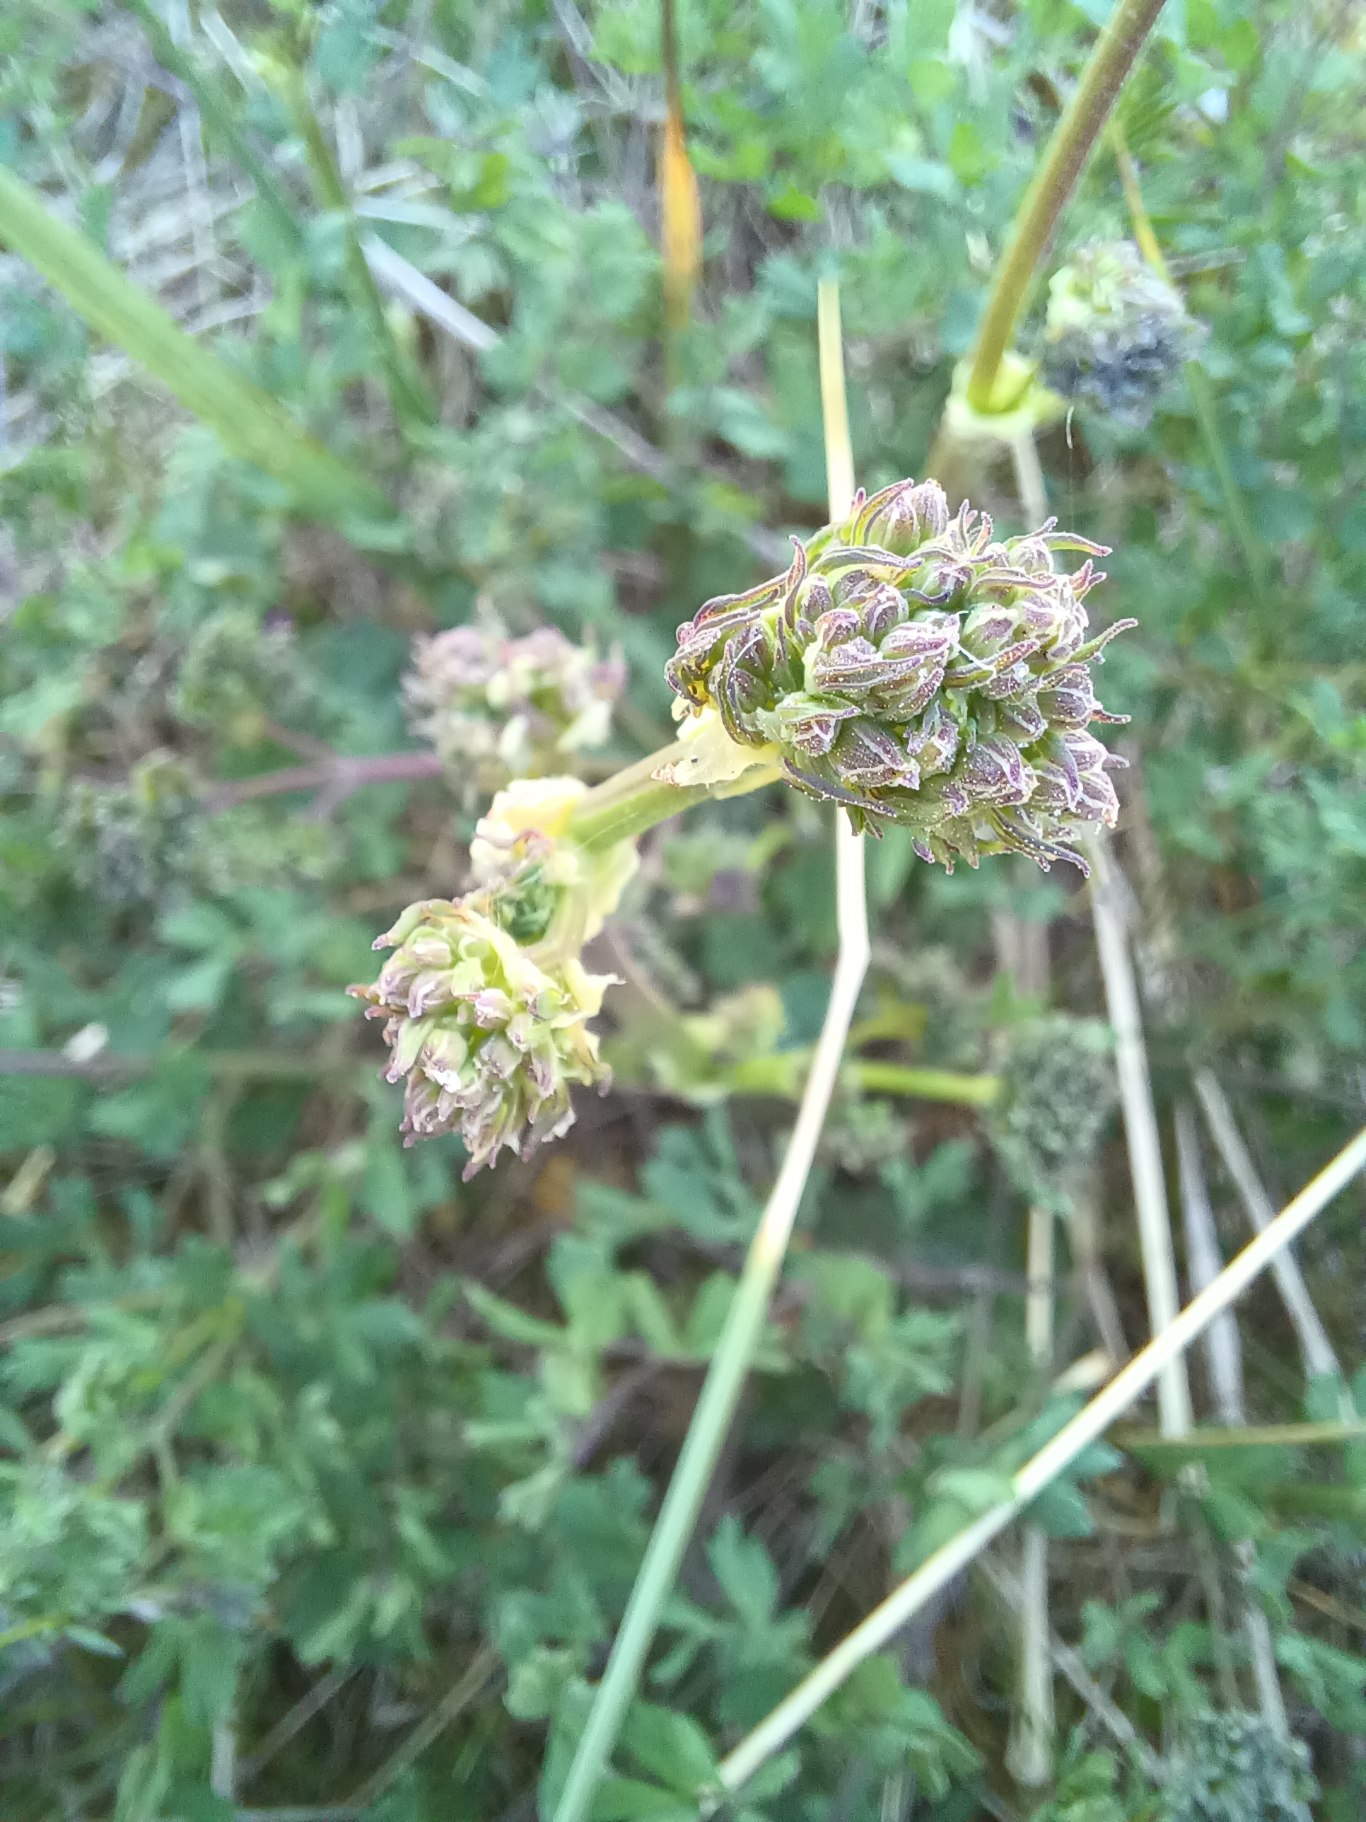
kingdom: Plantae
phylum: Tracheophyta
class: Magnoliopsida
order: Ranunculales
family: Ranunculaceae
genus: Thalictrum
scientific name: Thalictrum minus
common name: Liden frøstjerne
